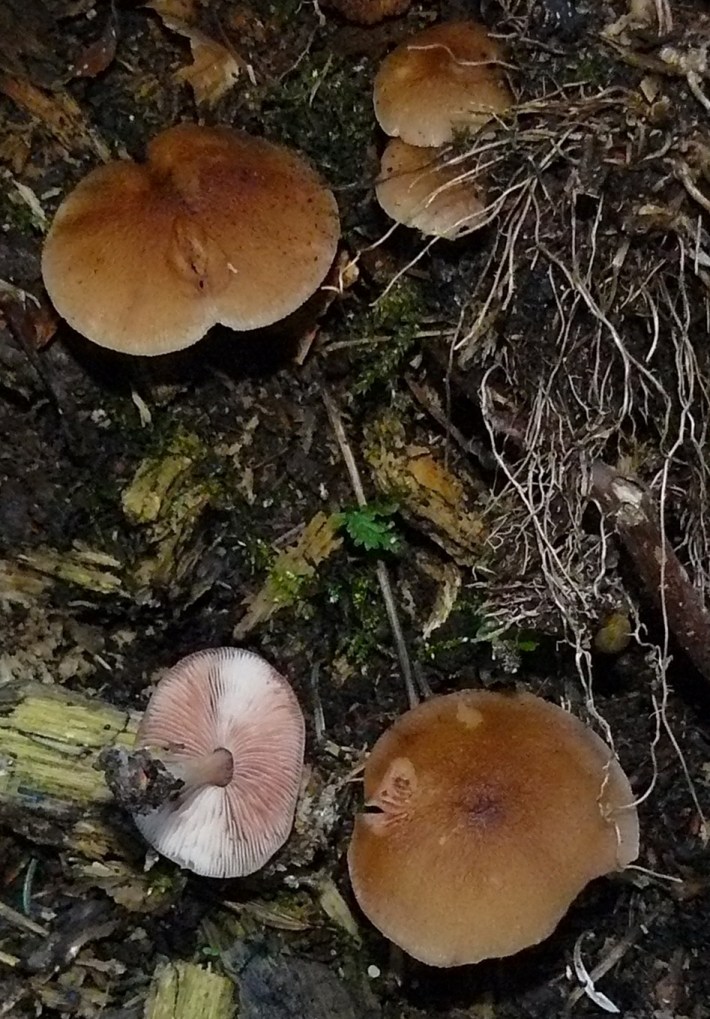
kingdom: Fungi
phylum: Basidiomycota
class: Agaricomycetes
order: Agaricales
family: Pluteaceae
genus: Pluteus
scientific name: Pluteus phlebophorus
